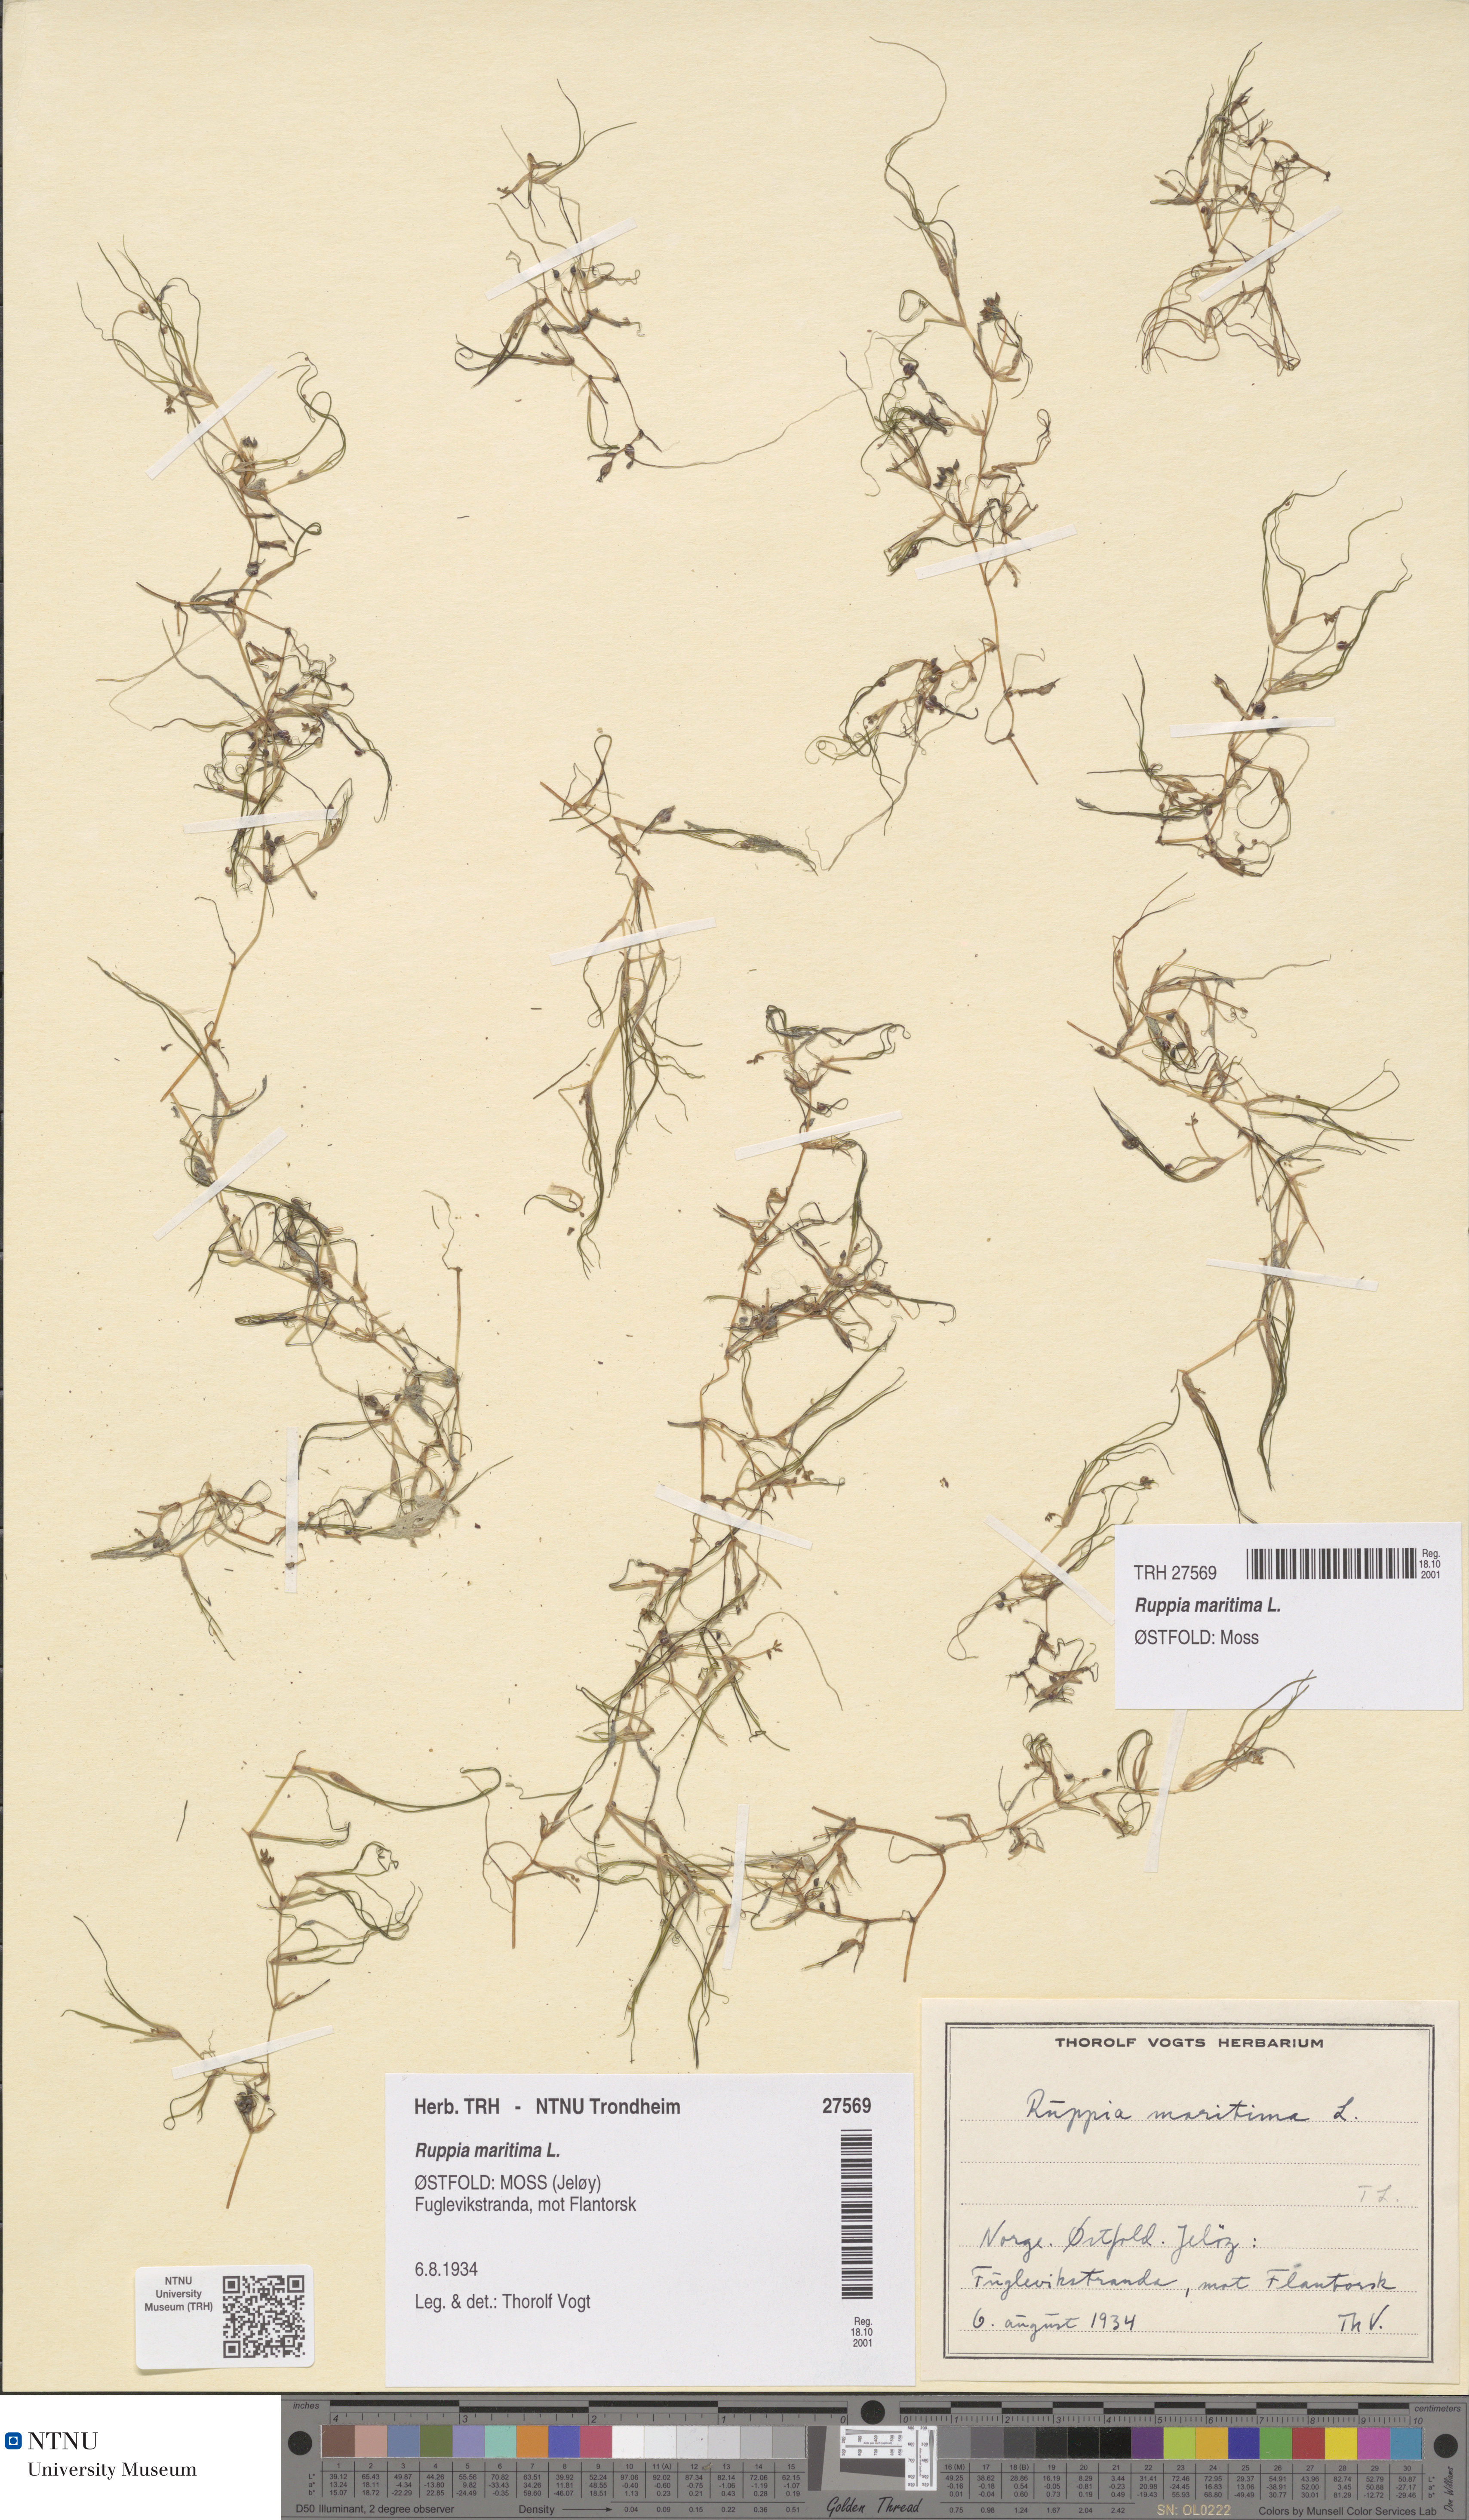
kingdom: Plantae
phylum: Tracheophyta
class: Liliopsida
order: Alismatales
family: Ruppiaceae
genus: Ruppia
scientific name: Ruppia maritima
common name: Beaked tasselweed
